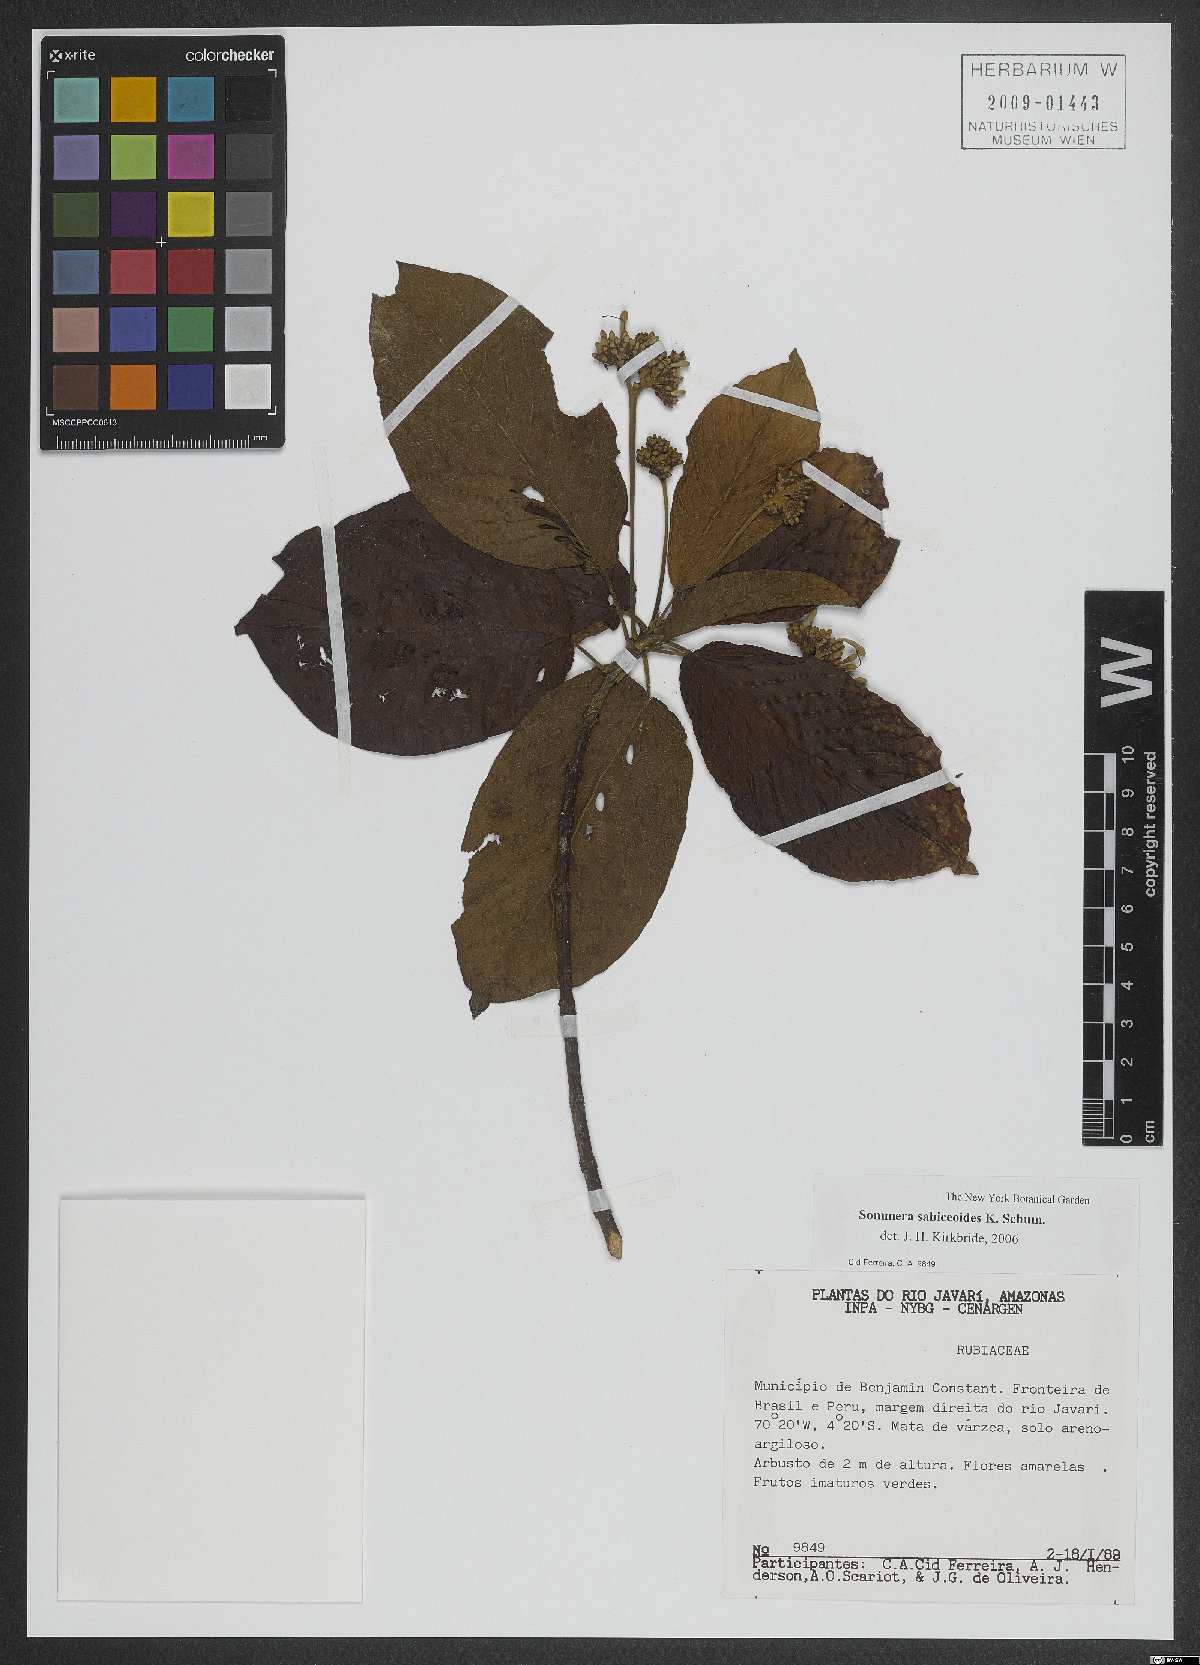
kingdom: Plantae
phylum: Tracheophyta
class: Magnoliopsida
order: Gentianales
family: Rubiaceae
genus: Sommera
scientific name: Sommera sabiceoides
